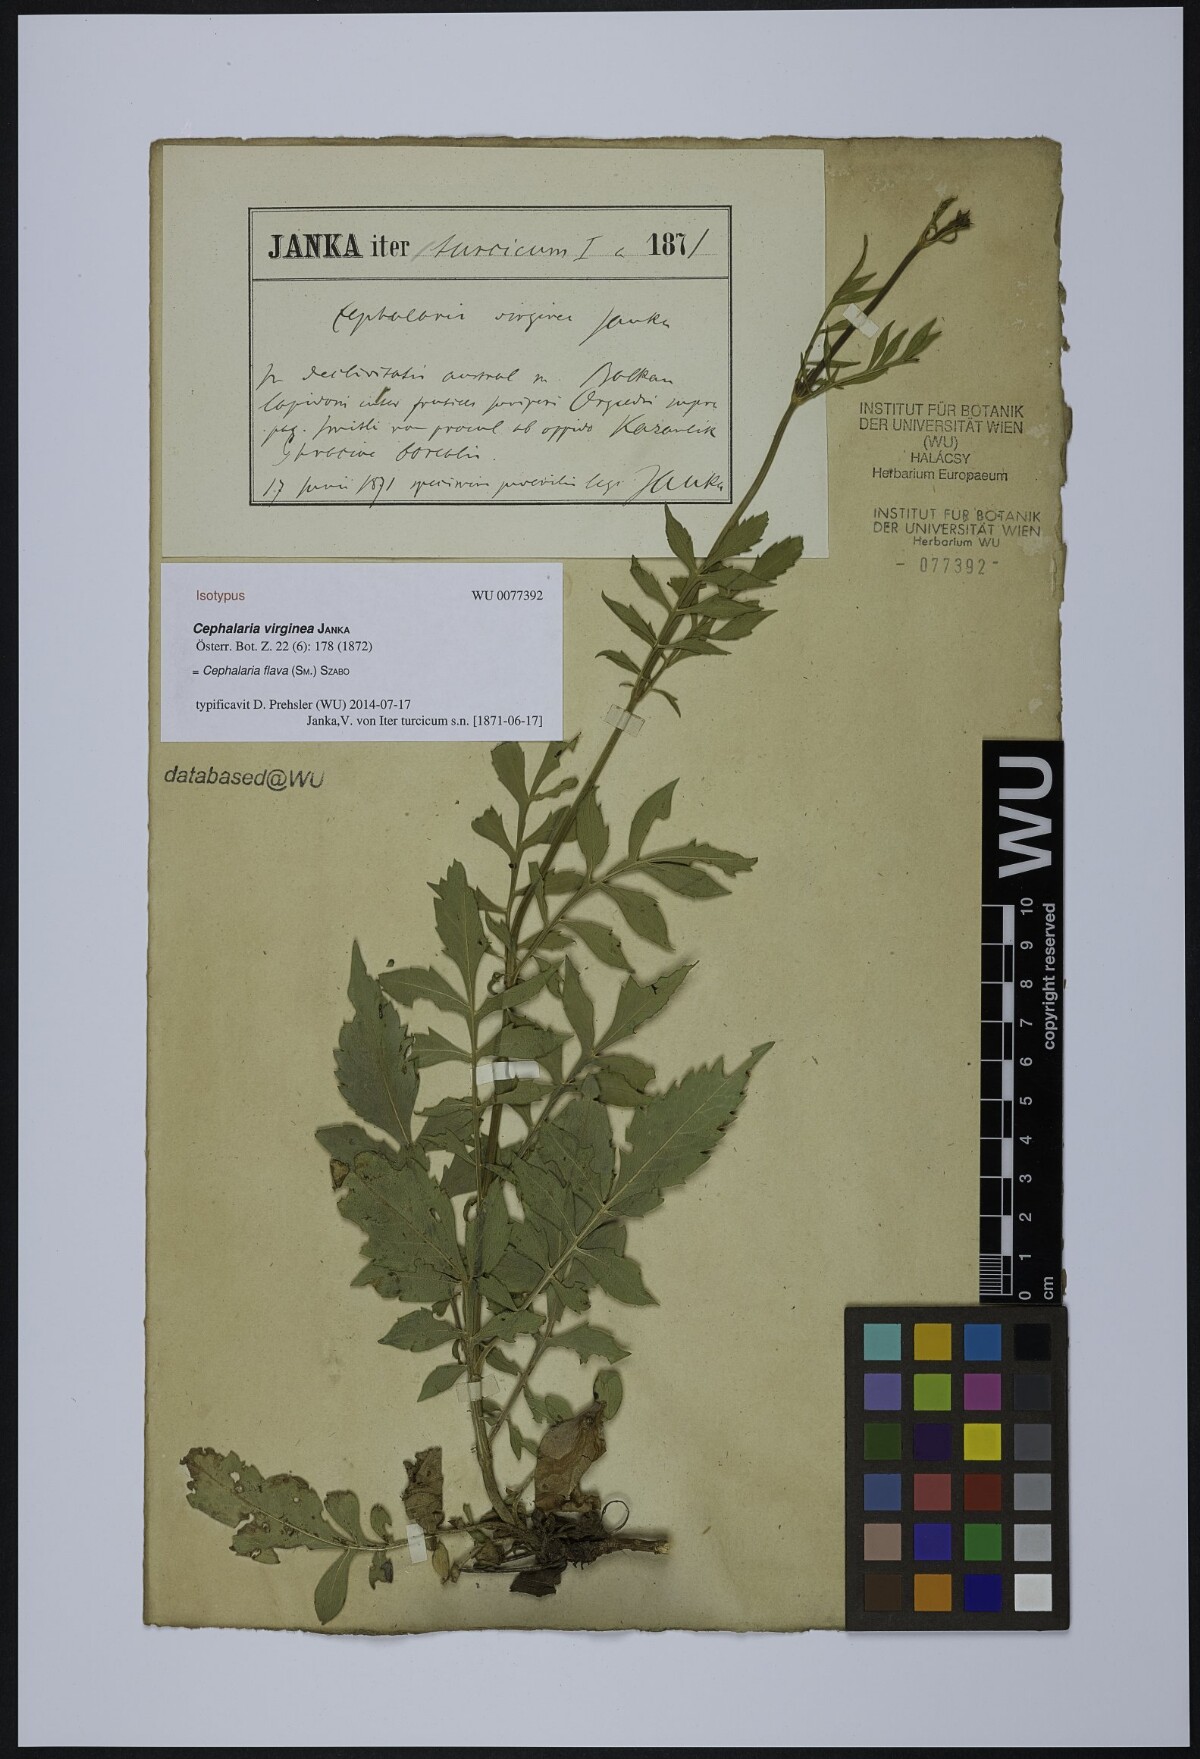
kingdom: Plantae
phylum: Tracheophyta
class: Magnoliopsida
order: Dipsacales
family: Caprifoliaceae
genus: Cephalaria
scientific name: Cephalaria flava
